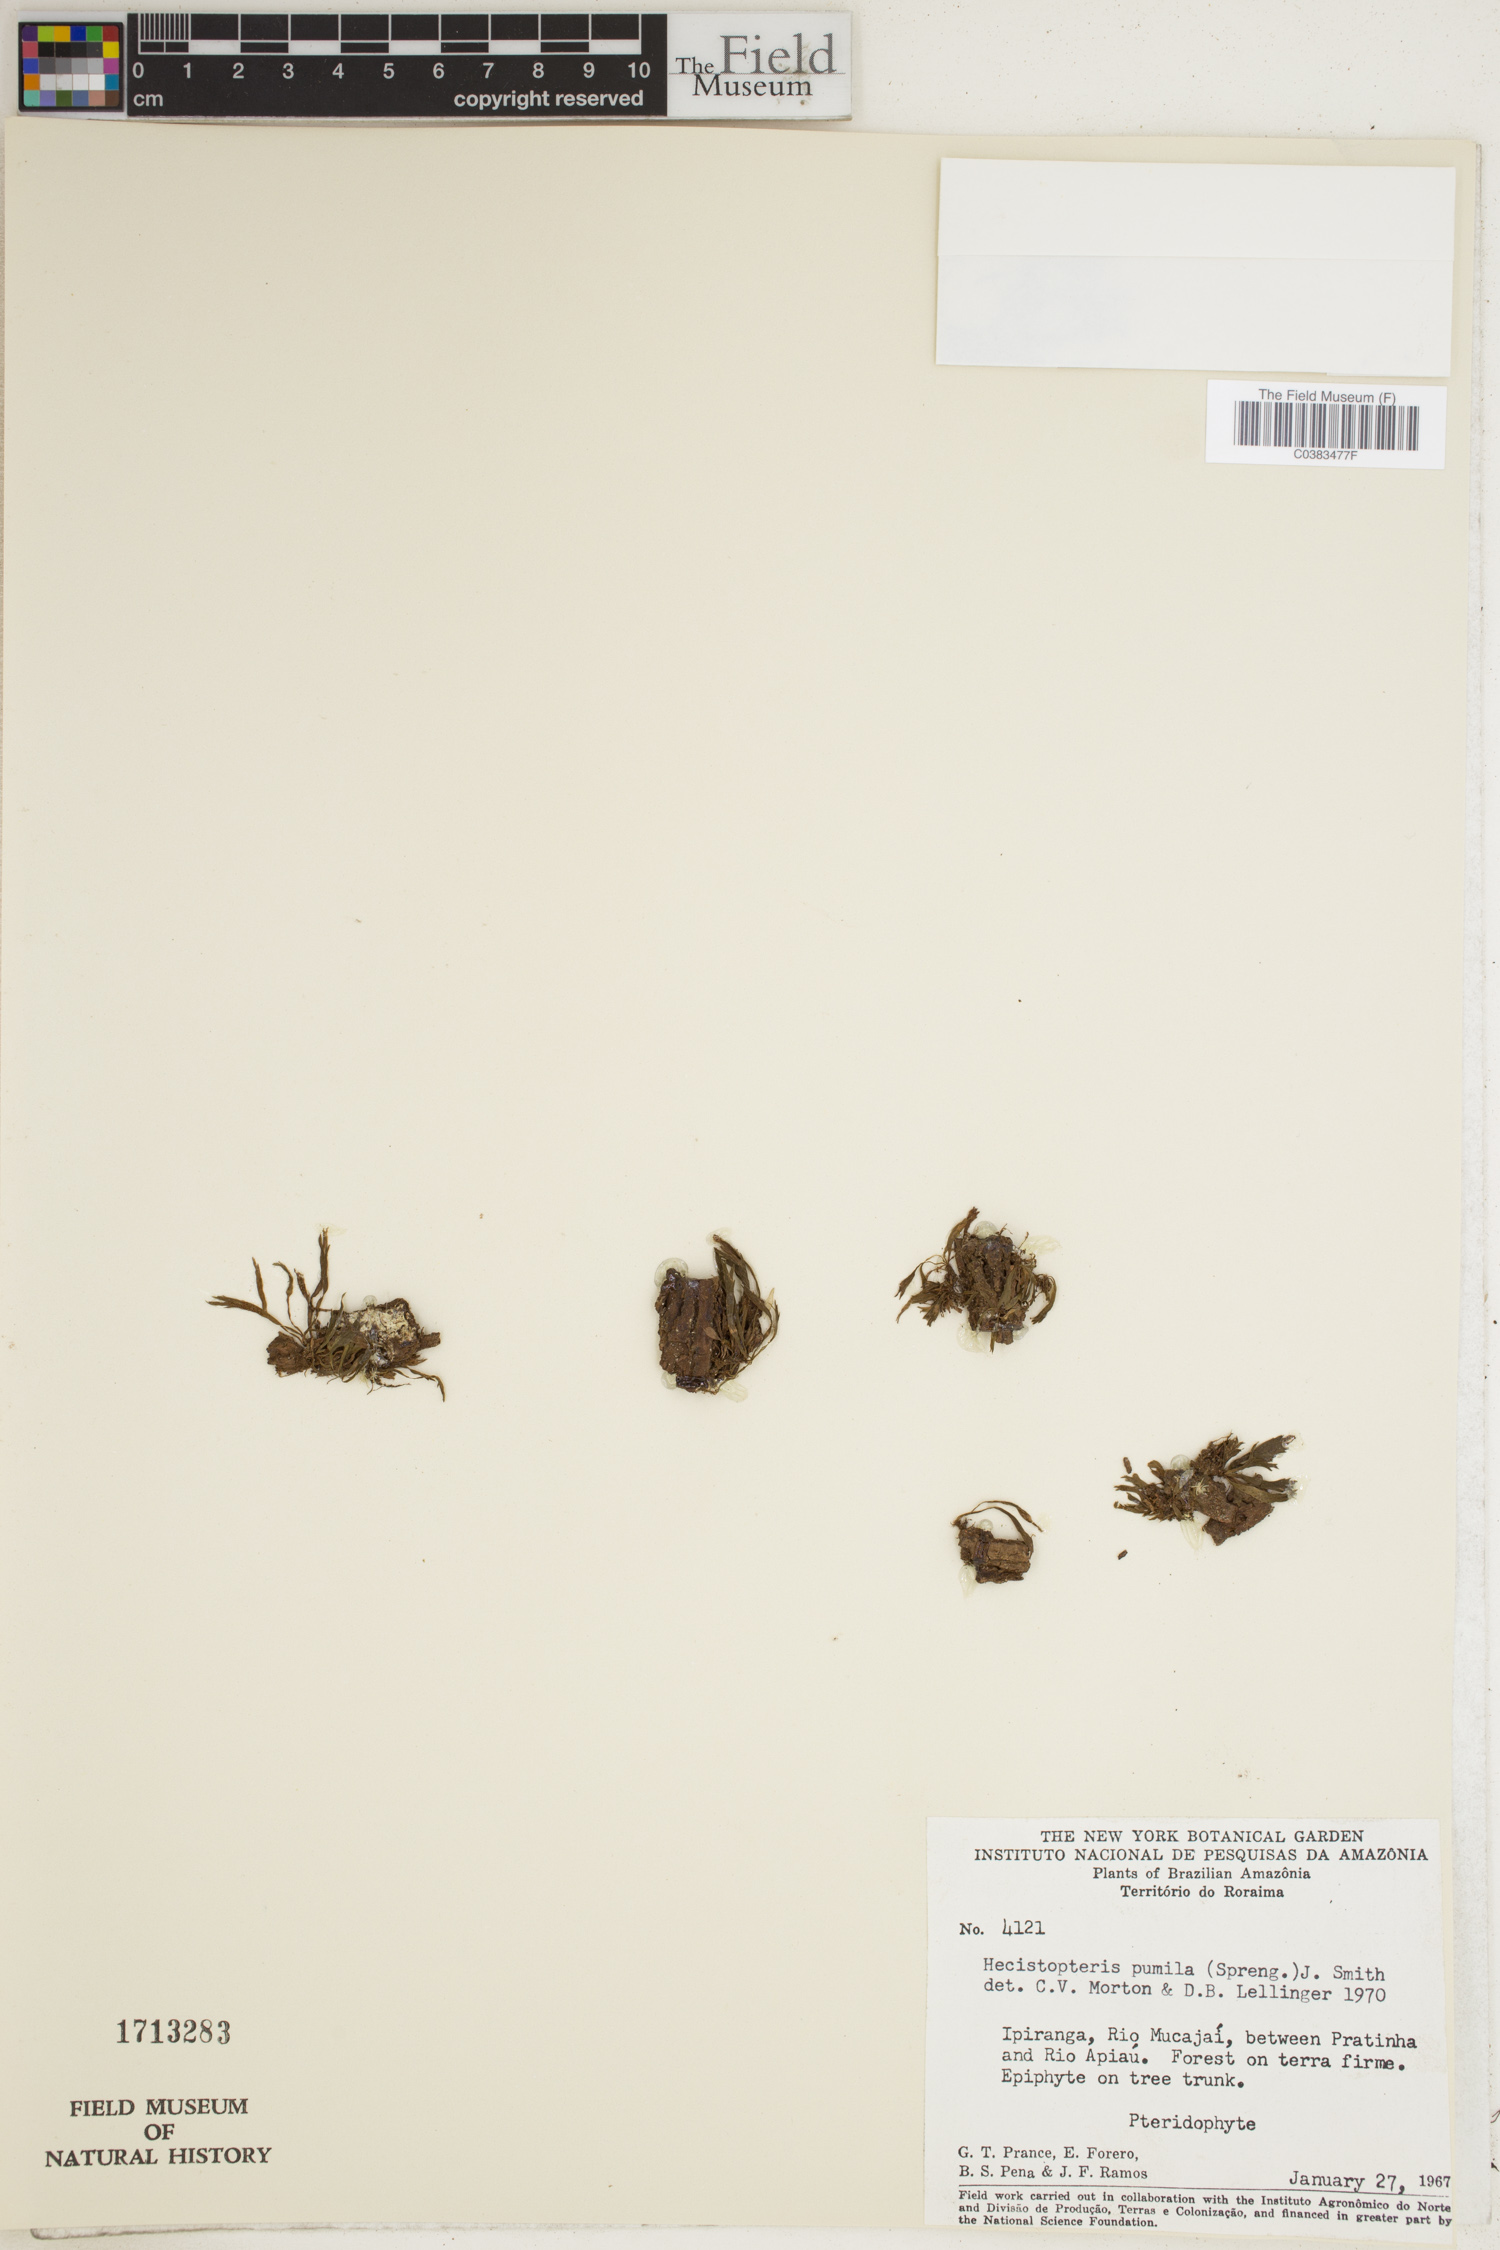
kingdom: Plantae
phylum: Tracheophyta
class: Polypodiopsida
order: Polypodiales
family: Pteridaceae
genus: Hecistopteris
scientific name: Hecistopteris pumila
